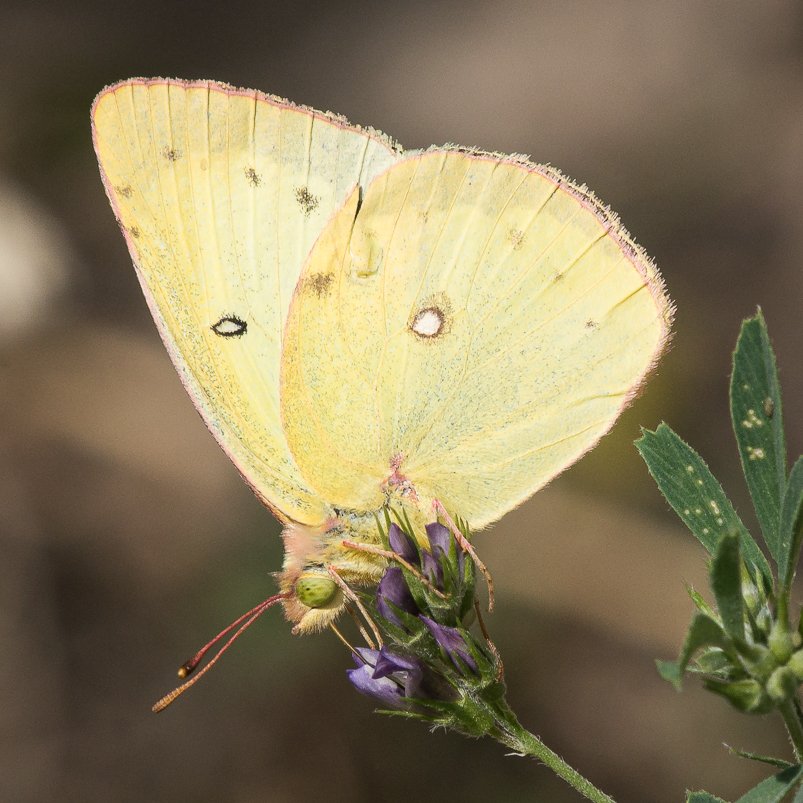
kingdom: Animalia
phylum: Arthropoda
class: Insecta
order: Lepidoptera
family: Pieridae
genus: Colias
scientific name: Colias philodice
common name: Clouded Sulphur
